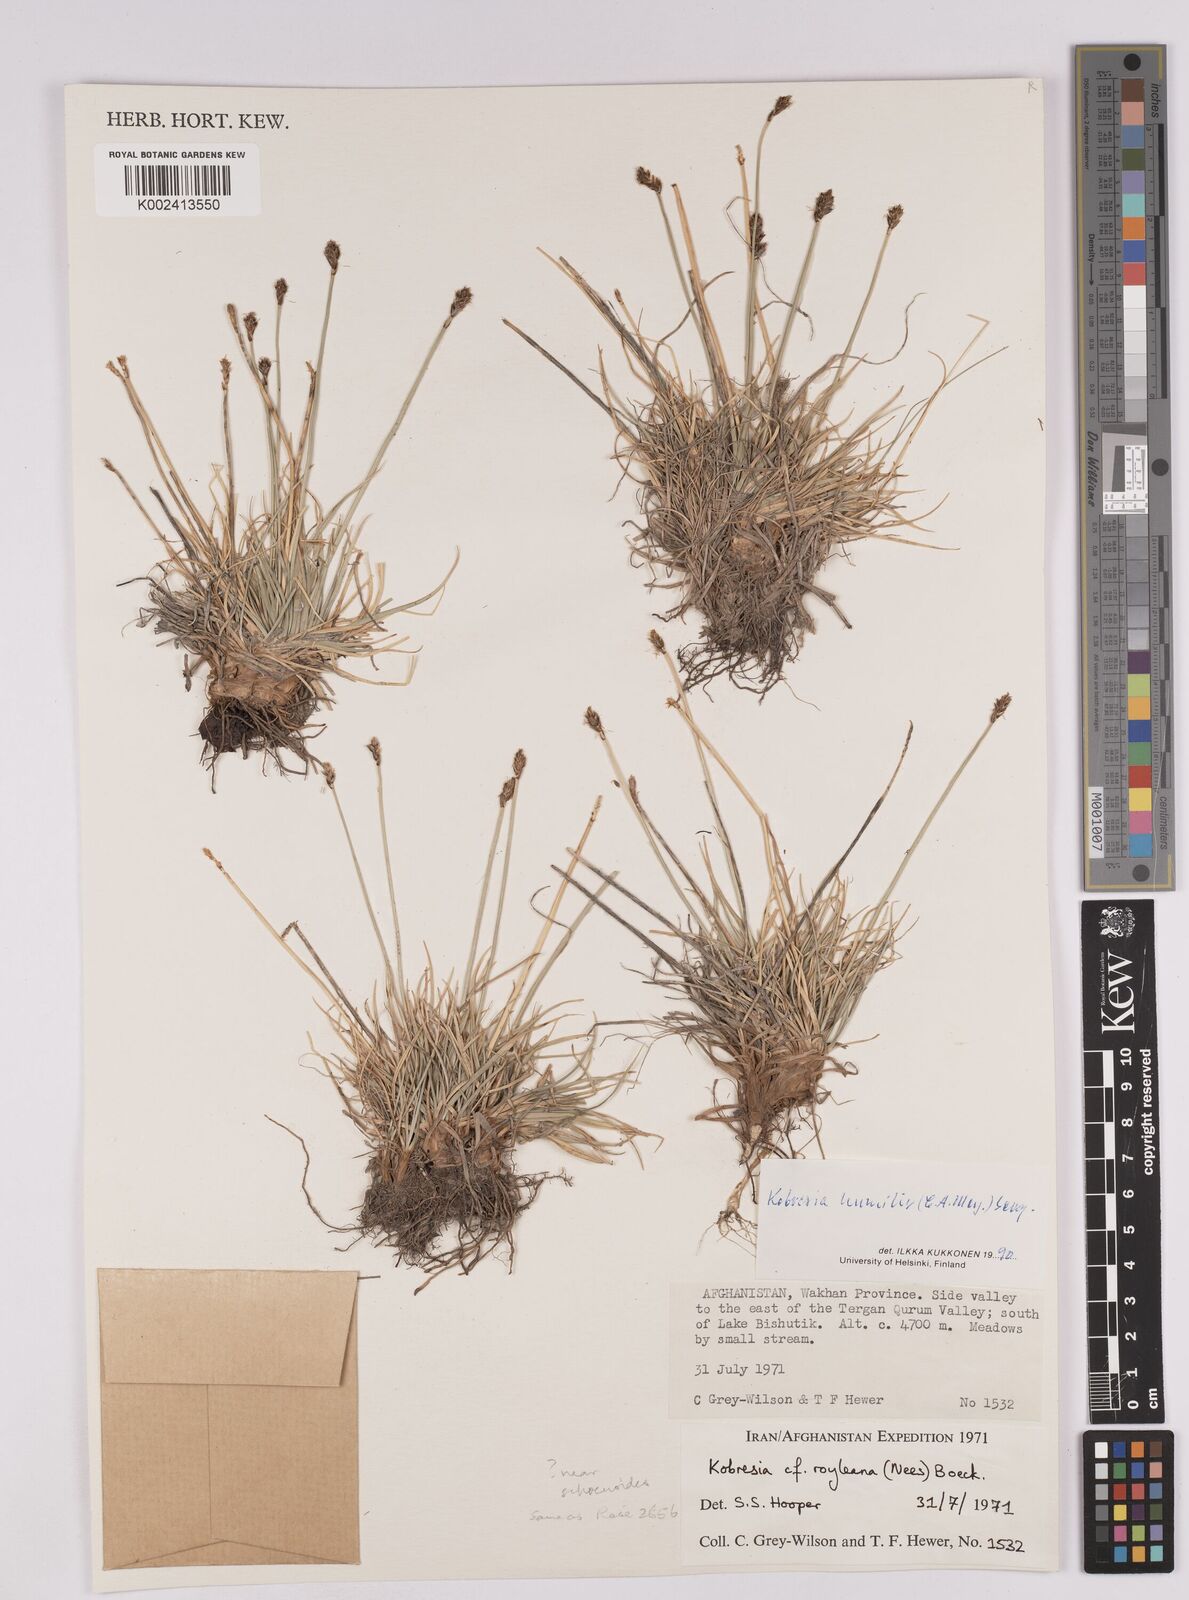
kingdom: Plantae
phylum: Tracheophyta
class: Liliopsida
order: Poales
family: Cyperaceae
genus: Carex
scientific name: Carex alatauensis
